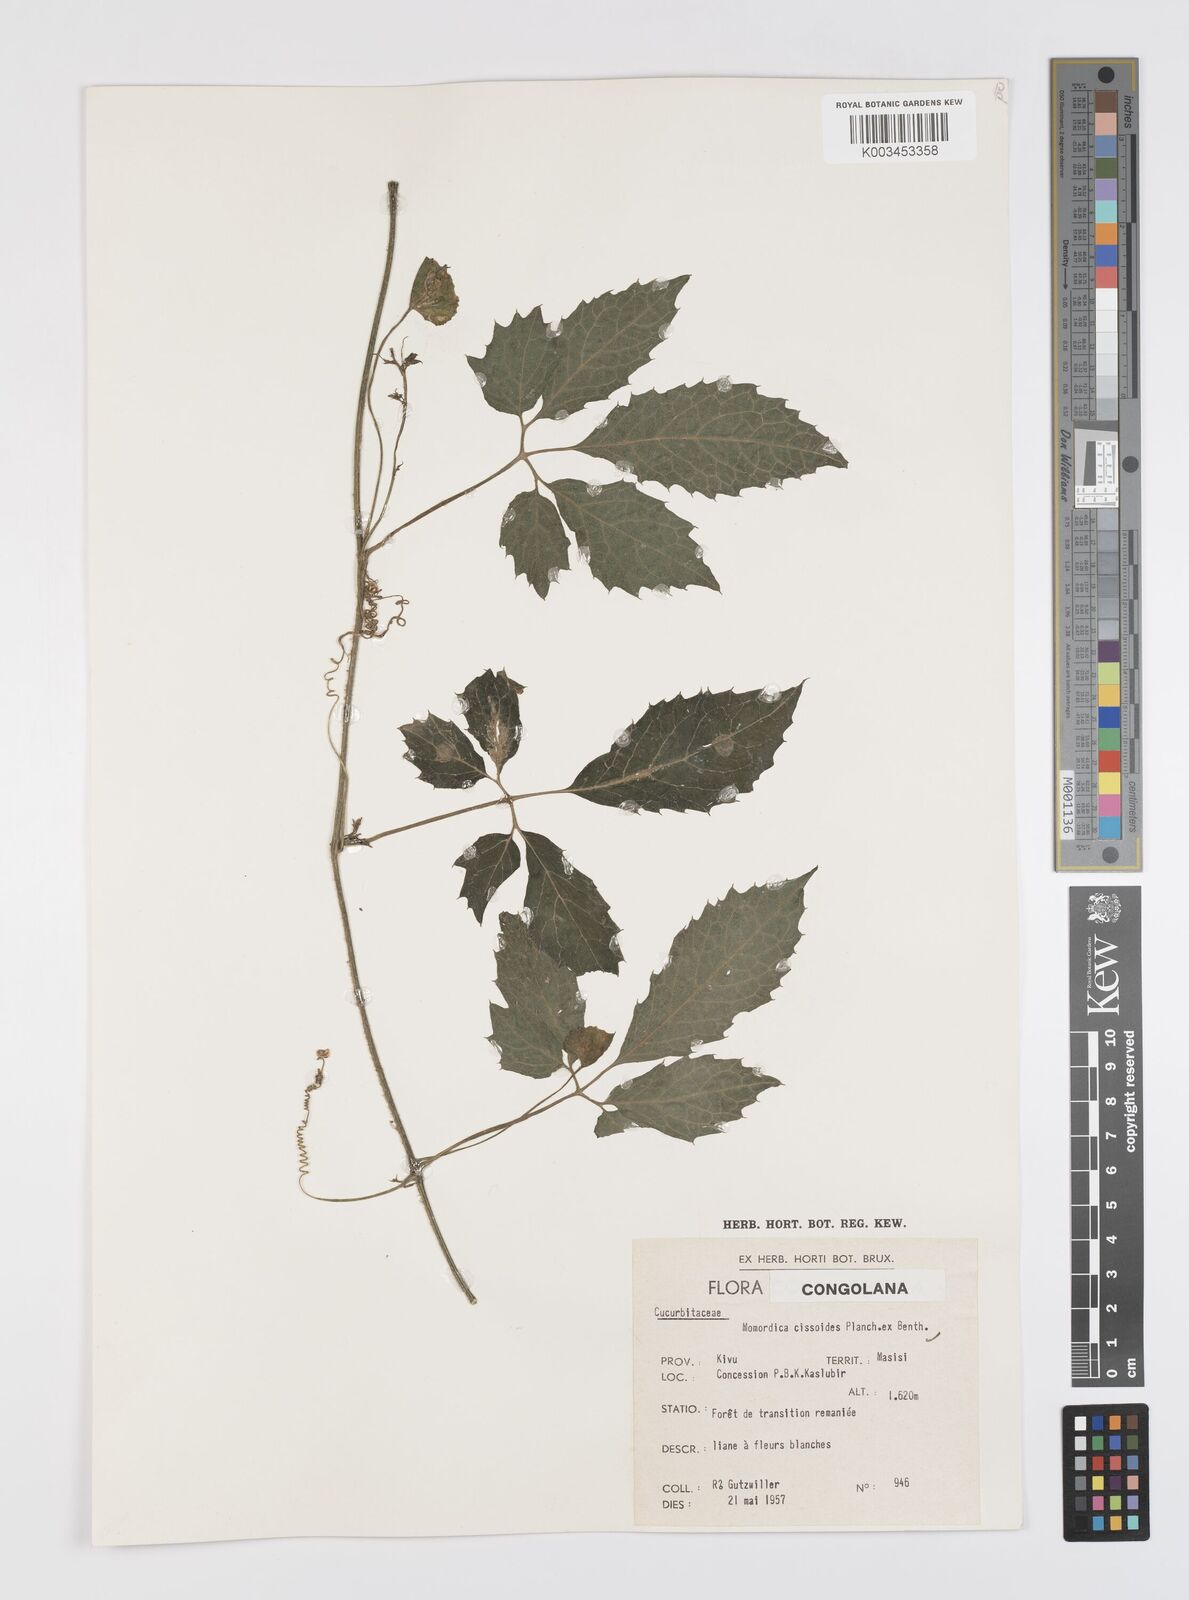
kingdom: Plantae
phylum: Tracheophyta
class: Magnoliopsida
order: Cucurbitales
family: Cucurbitaceae
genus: Momordica
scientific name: Momordica cissoides
